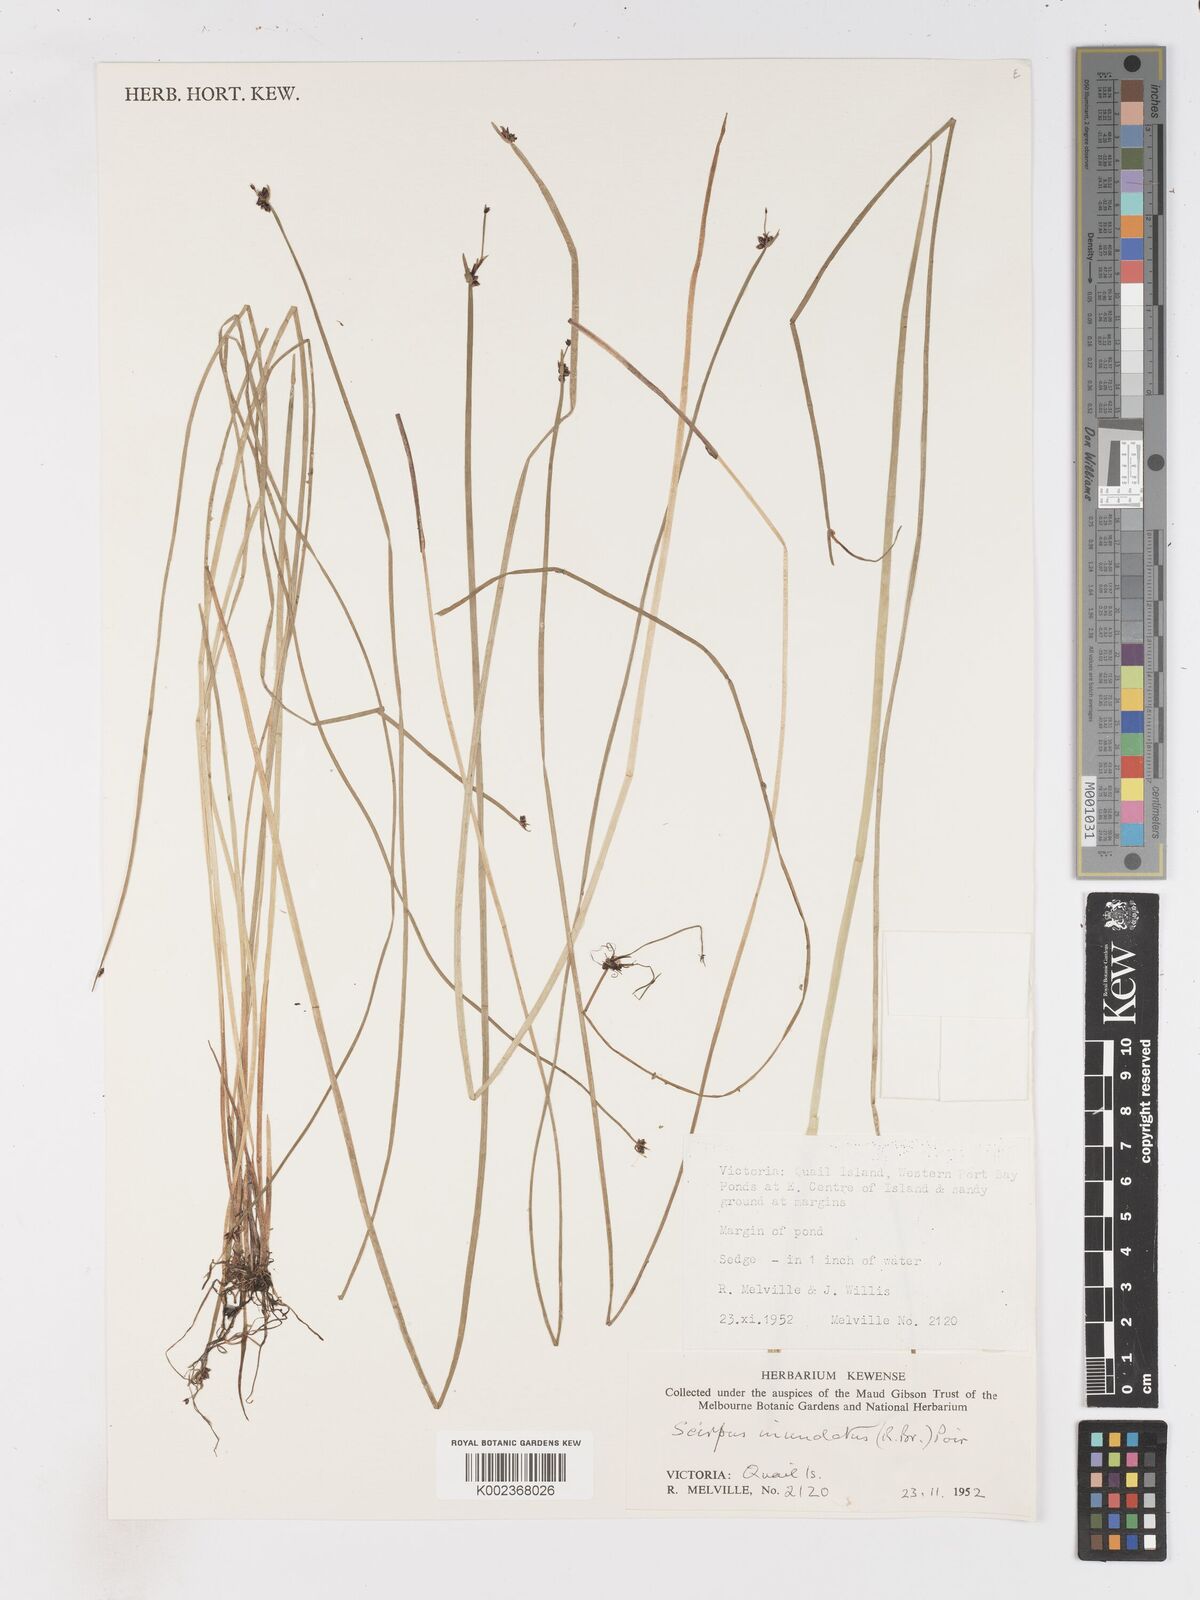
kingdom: Plantae
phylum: Tracheophyta
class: Liliopsida
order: Poales
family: Cyperaceae
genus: Isolepis
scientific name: Isolepis inundata
